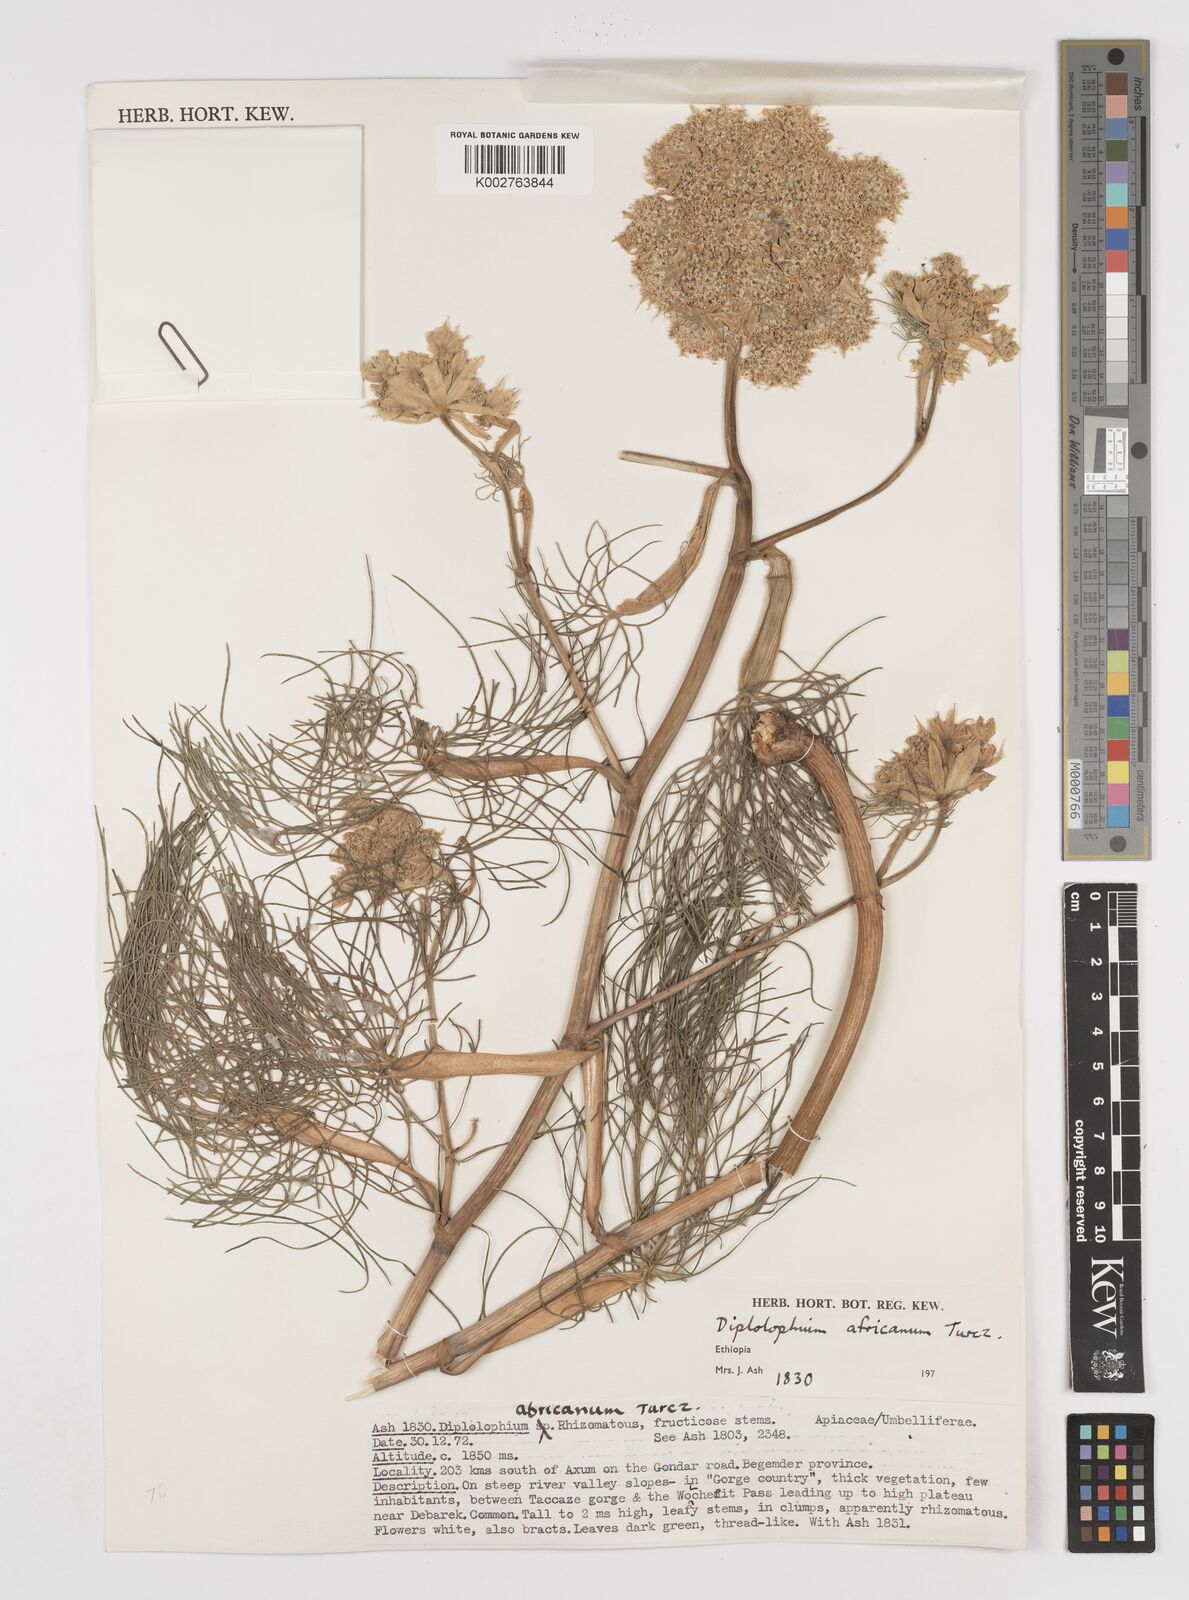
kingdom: Plantae
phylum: Tracheophyta
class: Magnoliopsida
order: Apiales
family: Apiaceae
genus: Diplolophium
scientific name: Diplolophium africanum
